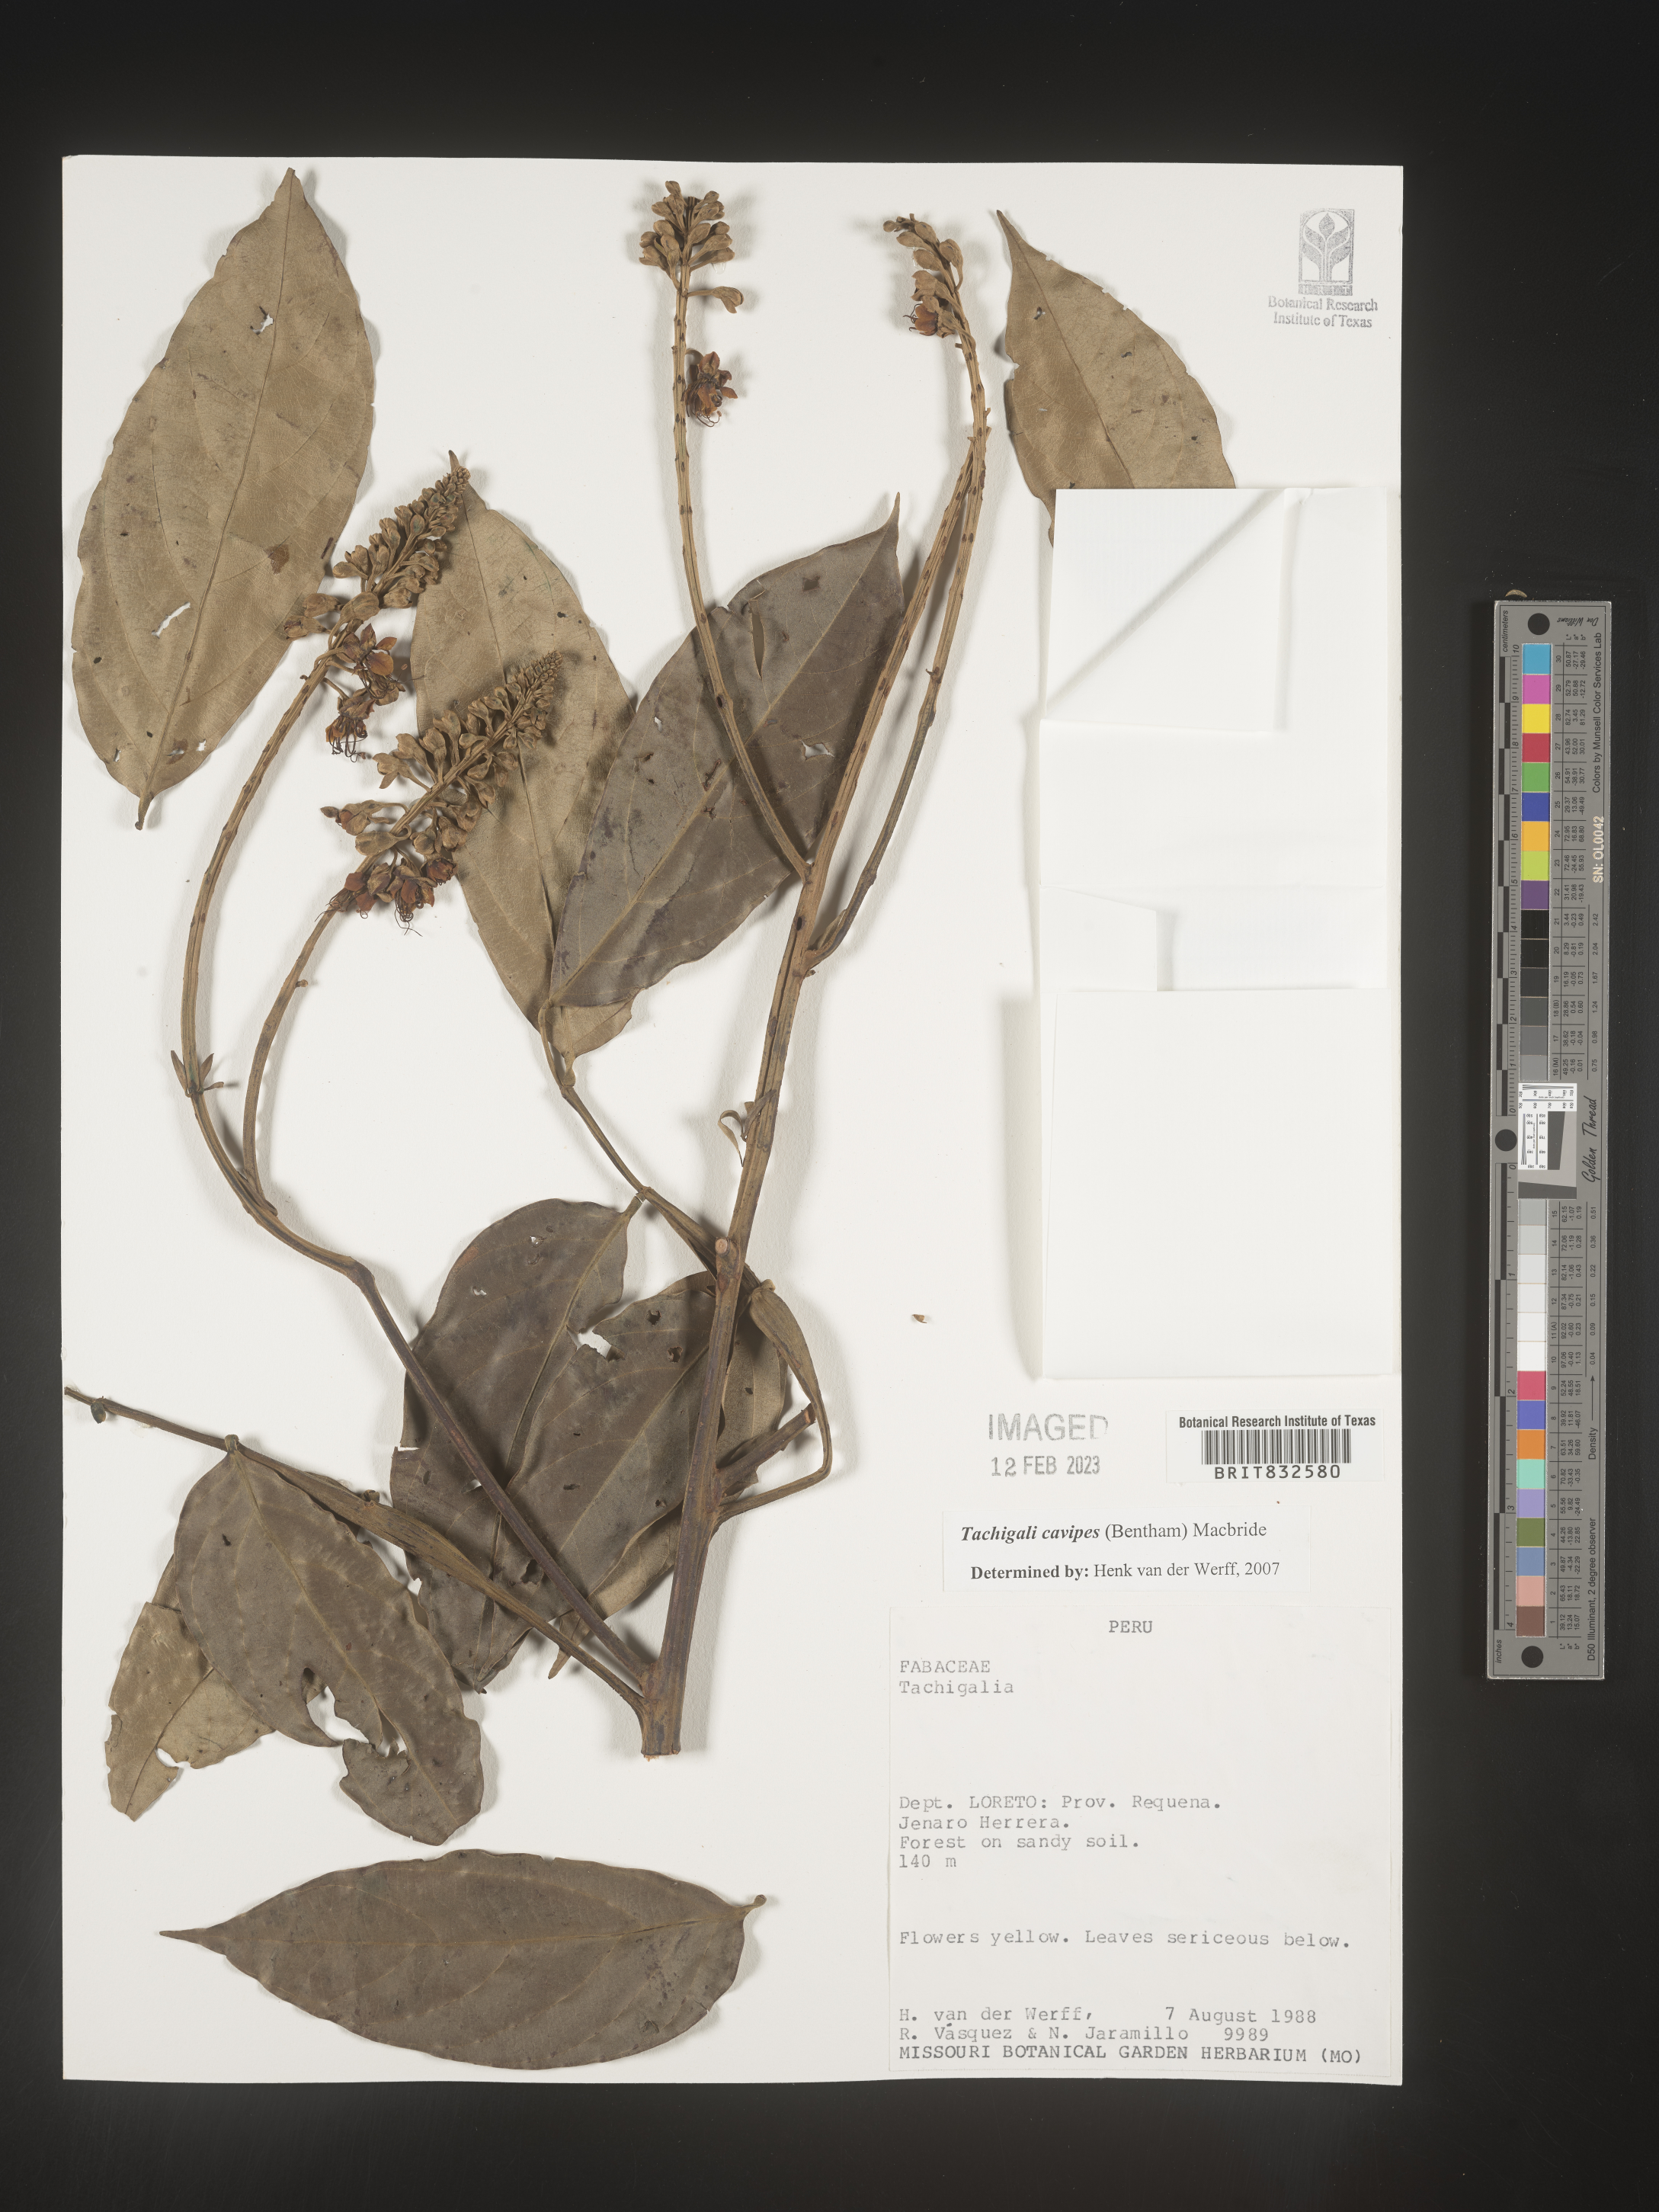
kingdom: Plantae
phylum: Tracheophyta
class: Magnoliopsida
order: Fabales
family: Fabaceae
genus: Tachigali
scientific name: Tachigali
